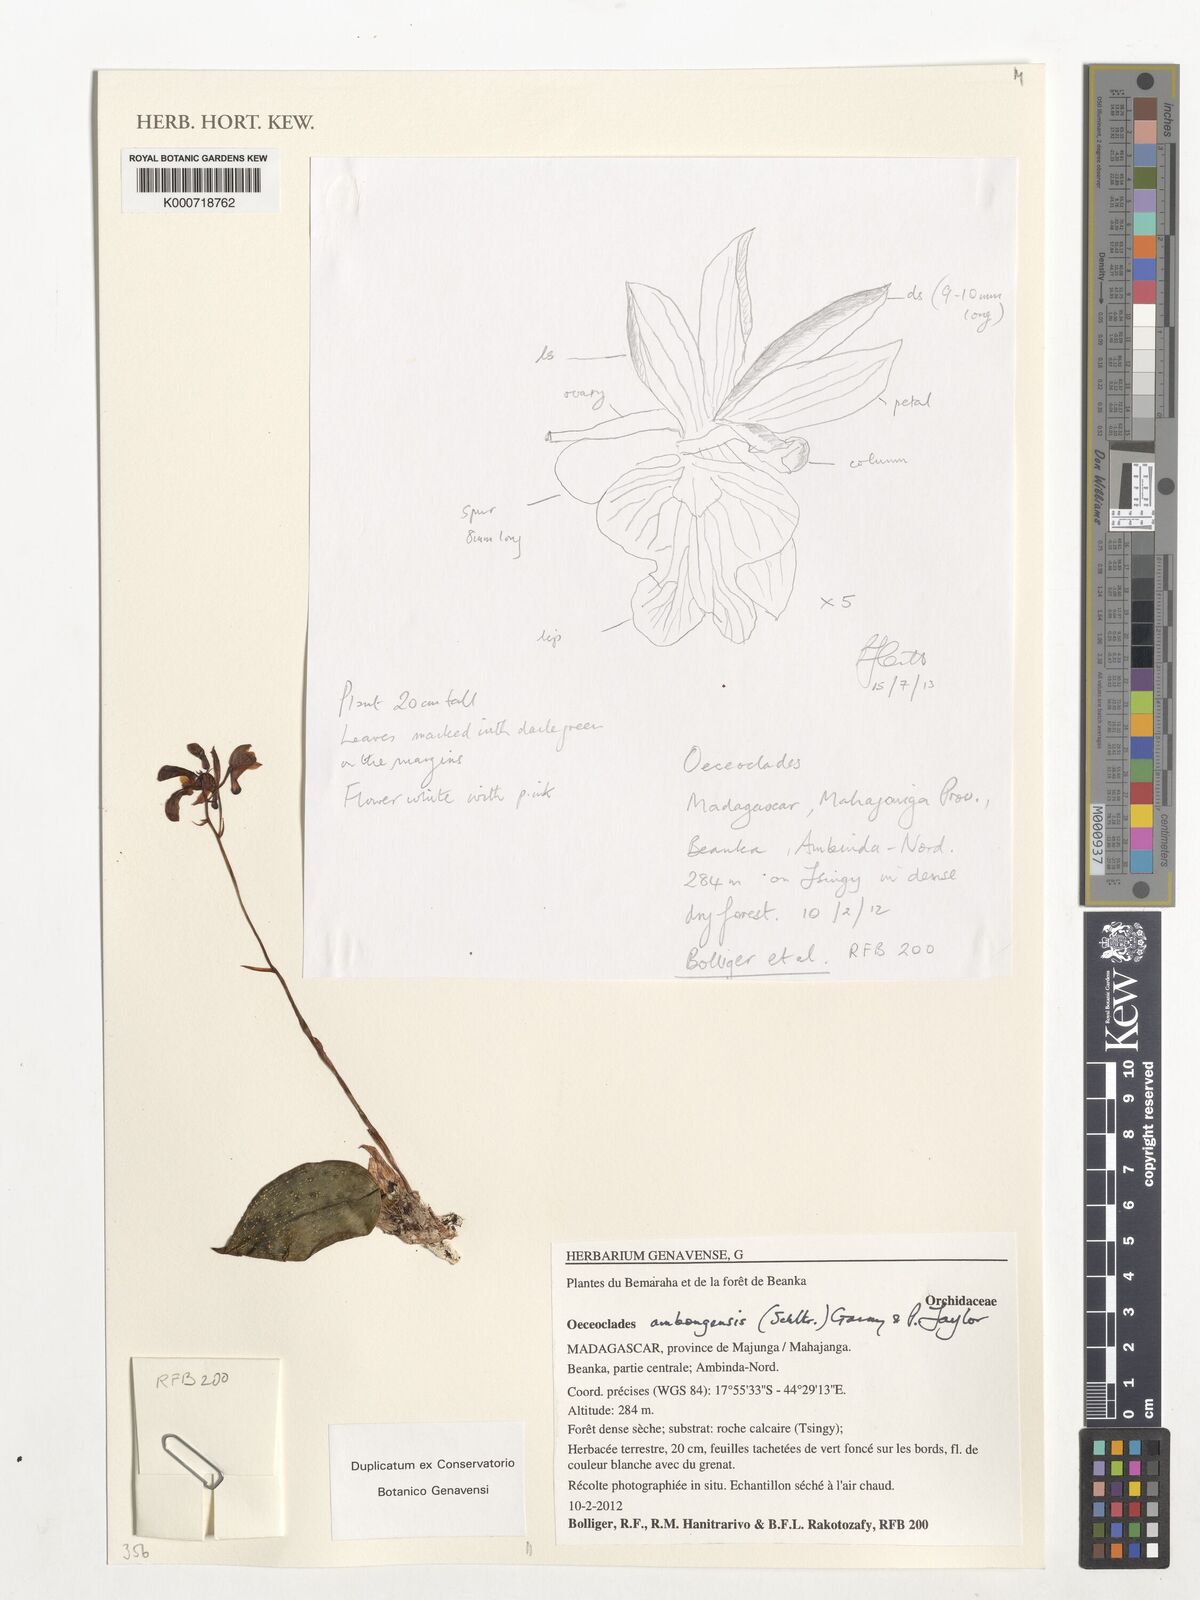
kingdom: Plantae
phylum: Tracheophyta
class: Liliopsida
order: Asparagales
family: Orchidaceae
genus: Eulophia
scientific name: Eulophia schlechteri
